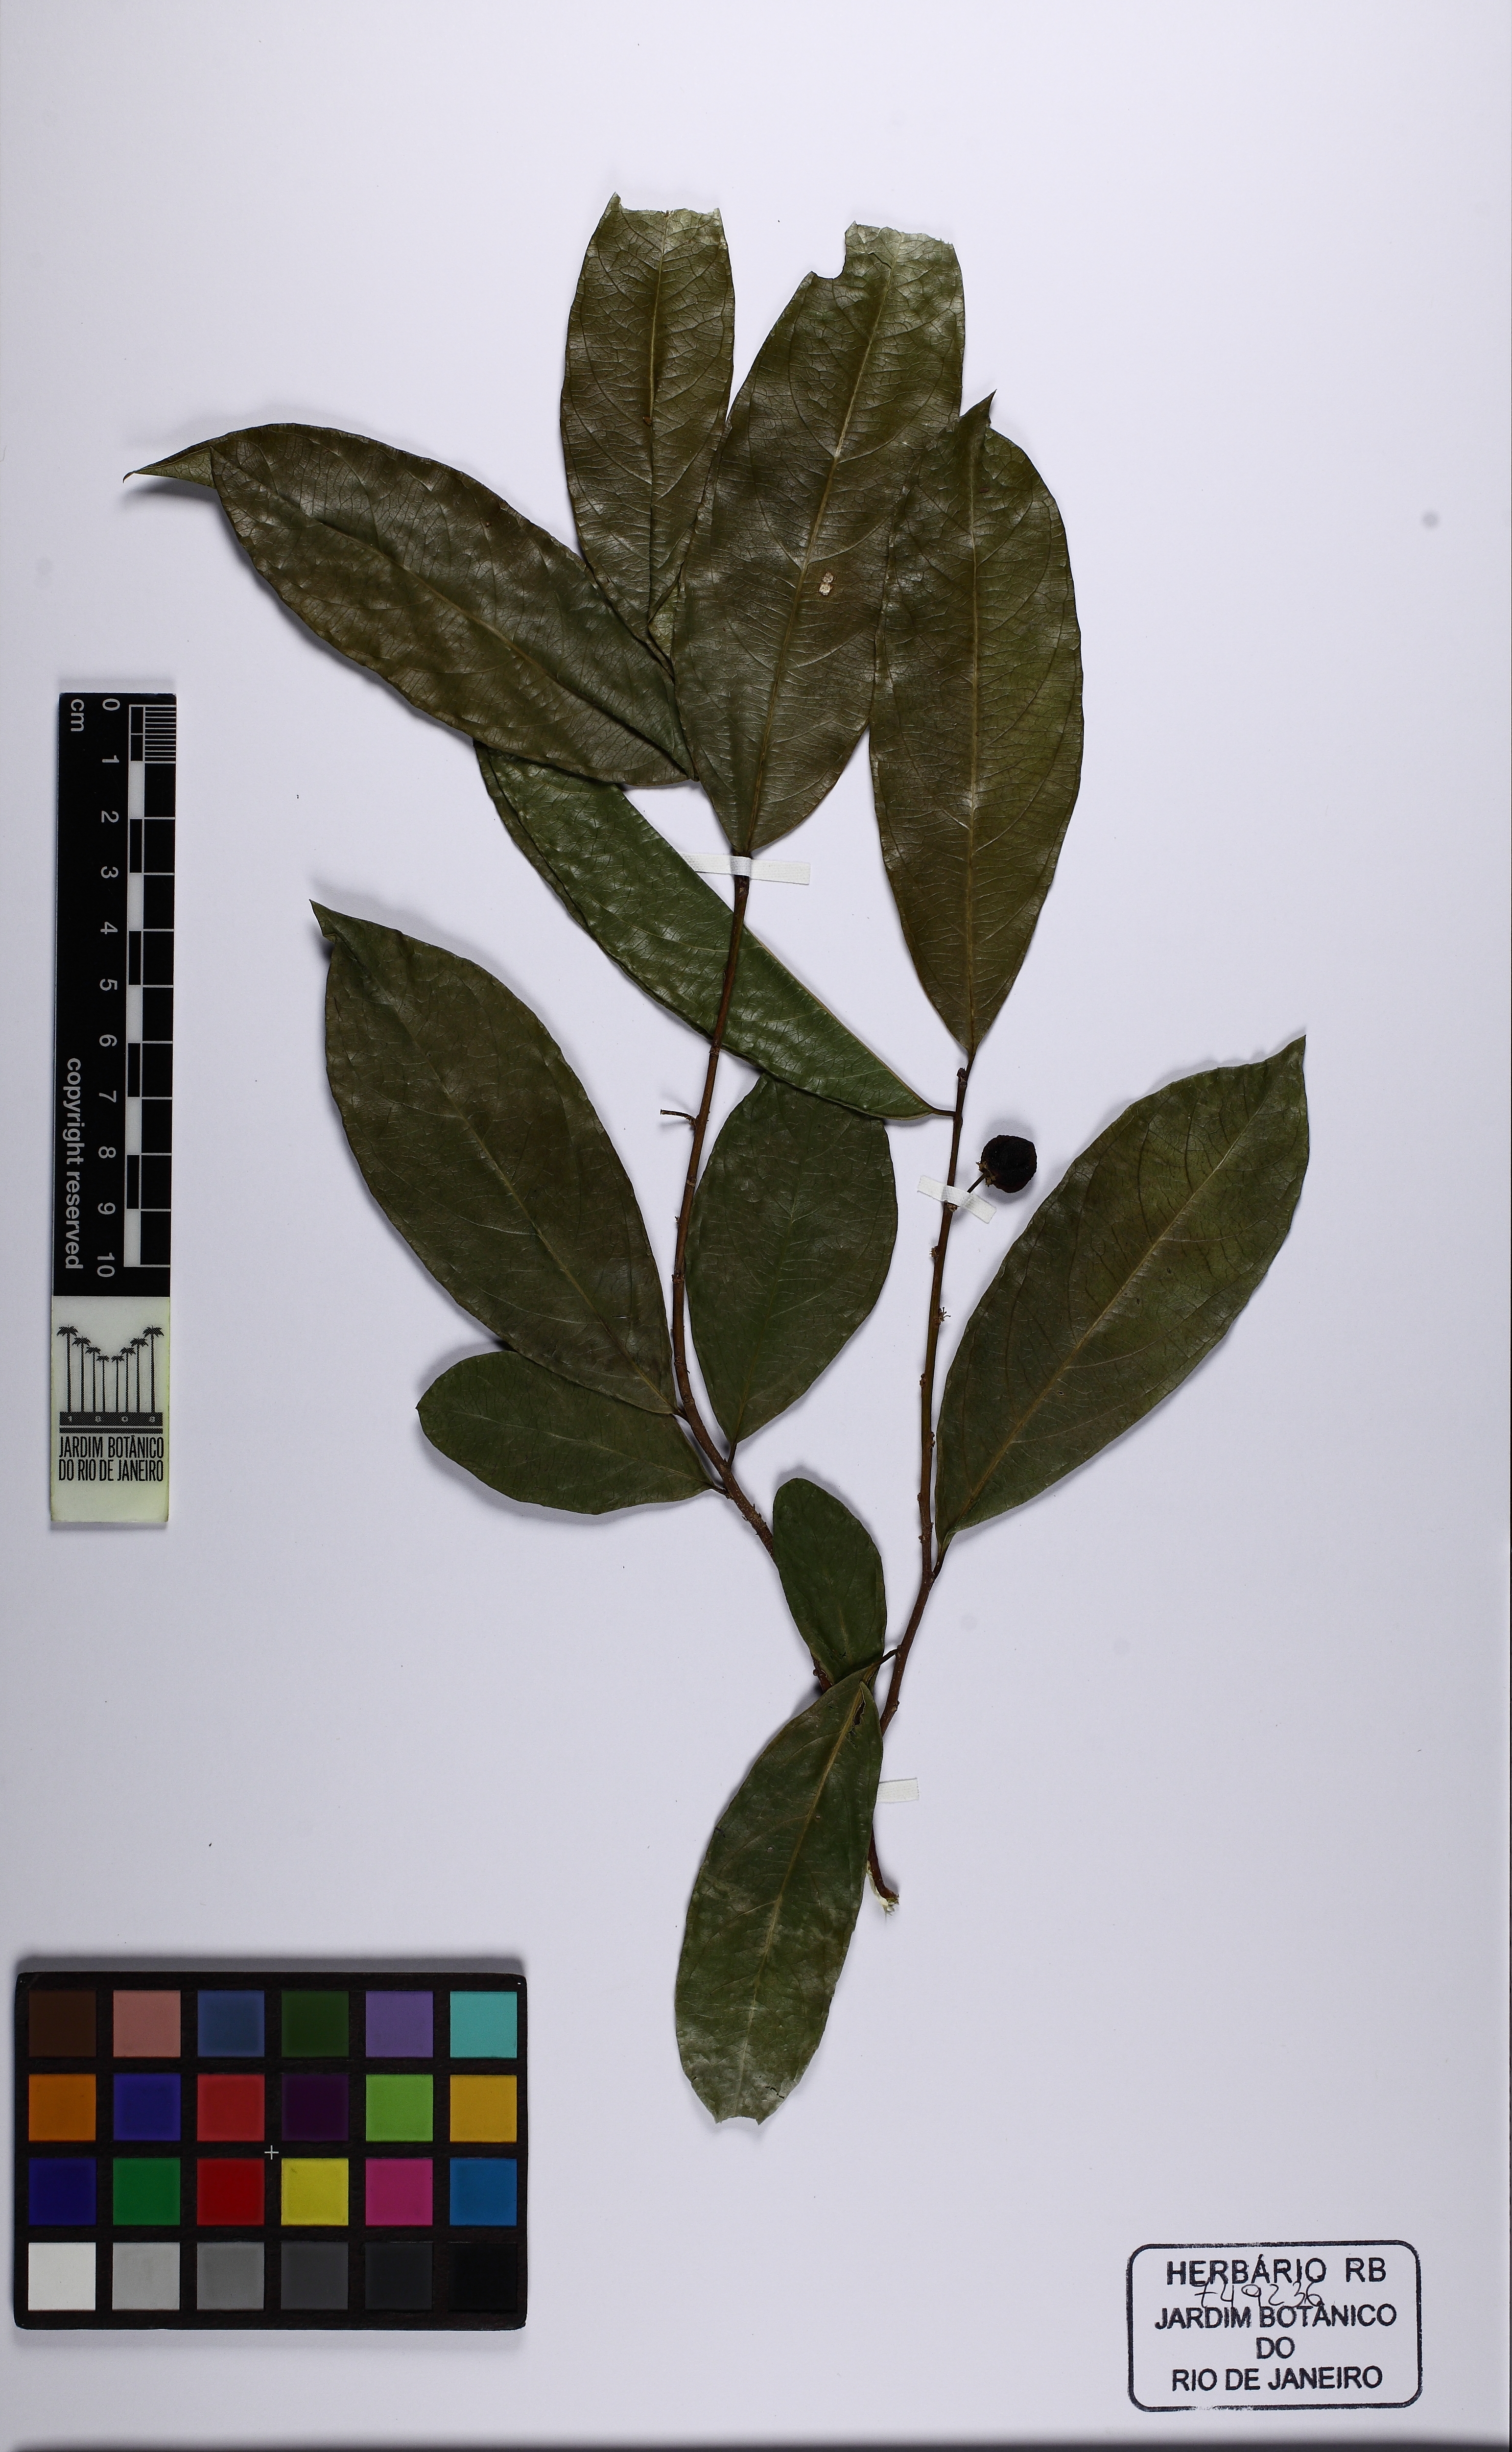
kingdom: Plantae
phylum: Tracheophyta
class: Magnoliopsida
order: Malpighiales
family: Salicaceae
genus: Casearia
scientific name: Casearia oblongifolia
